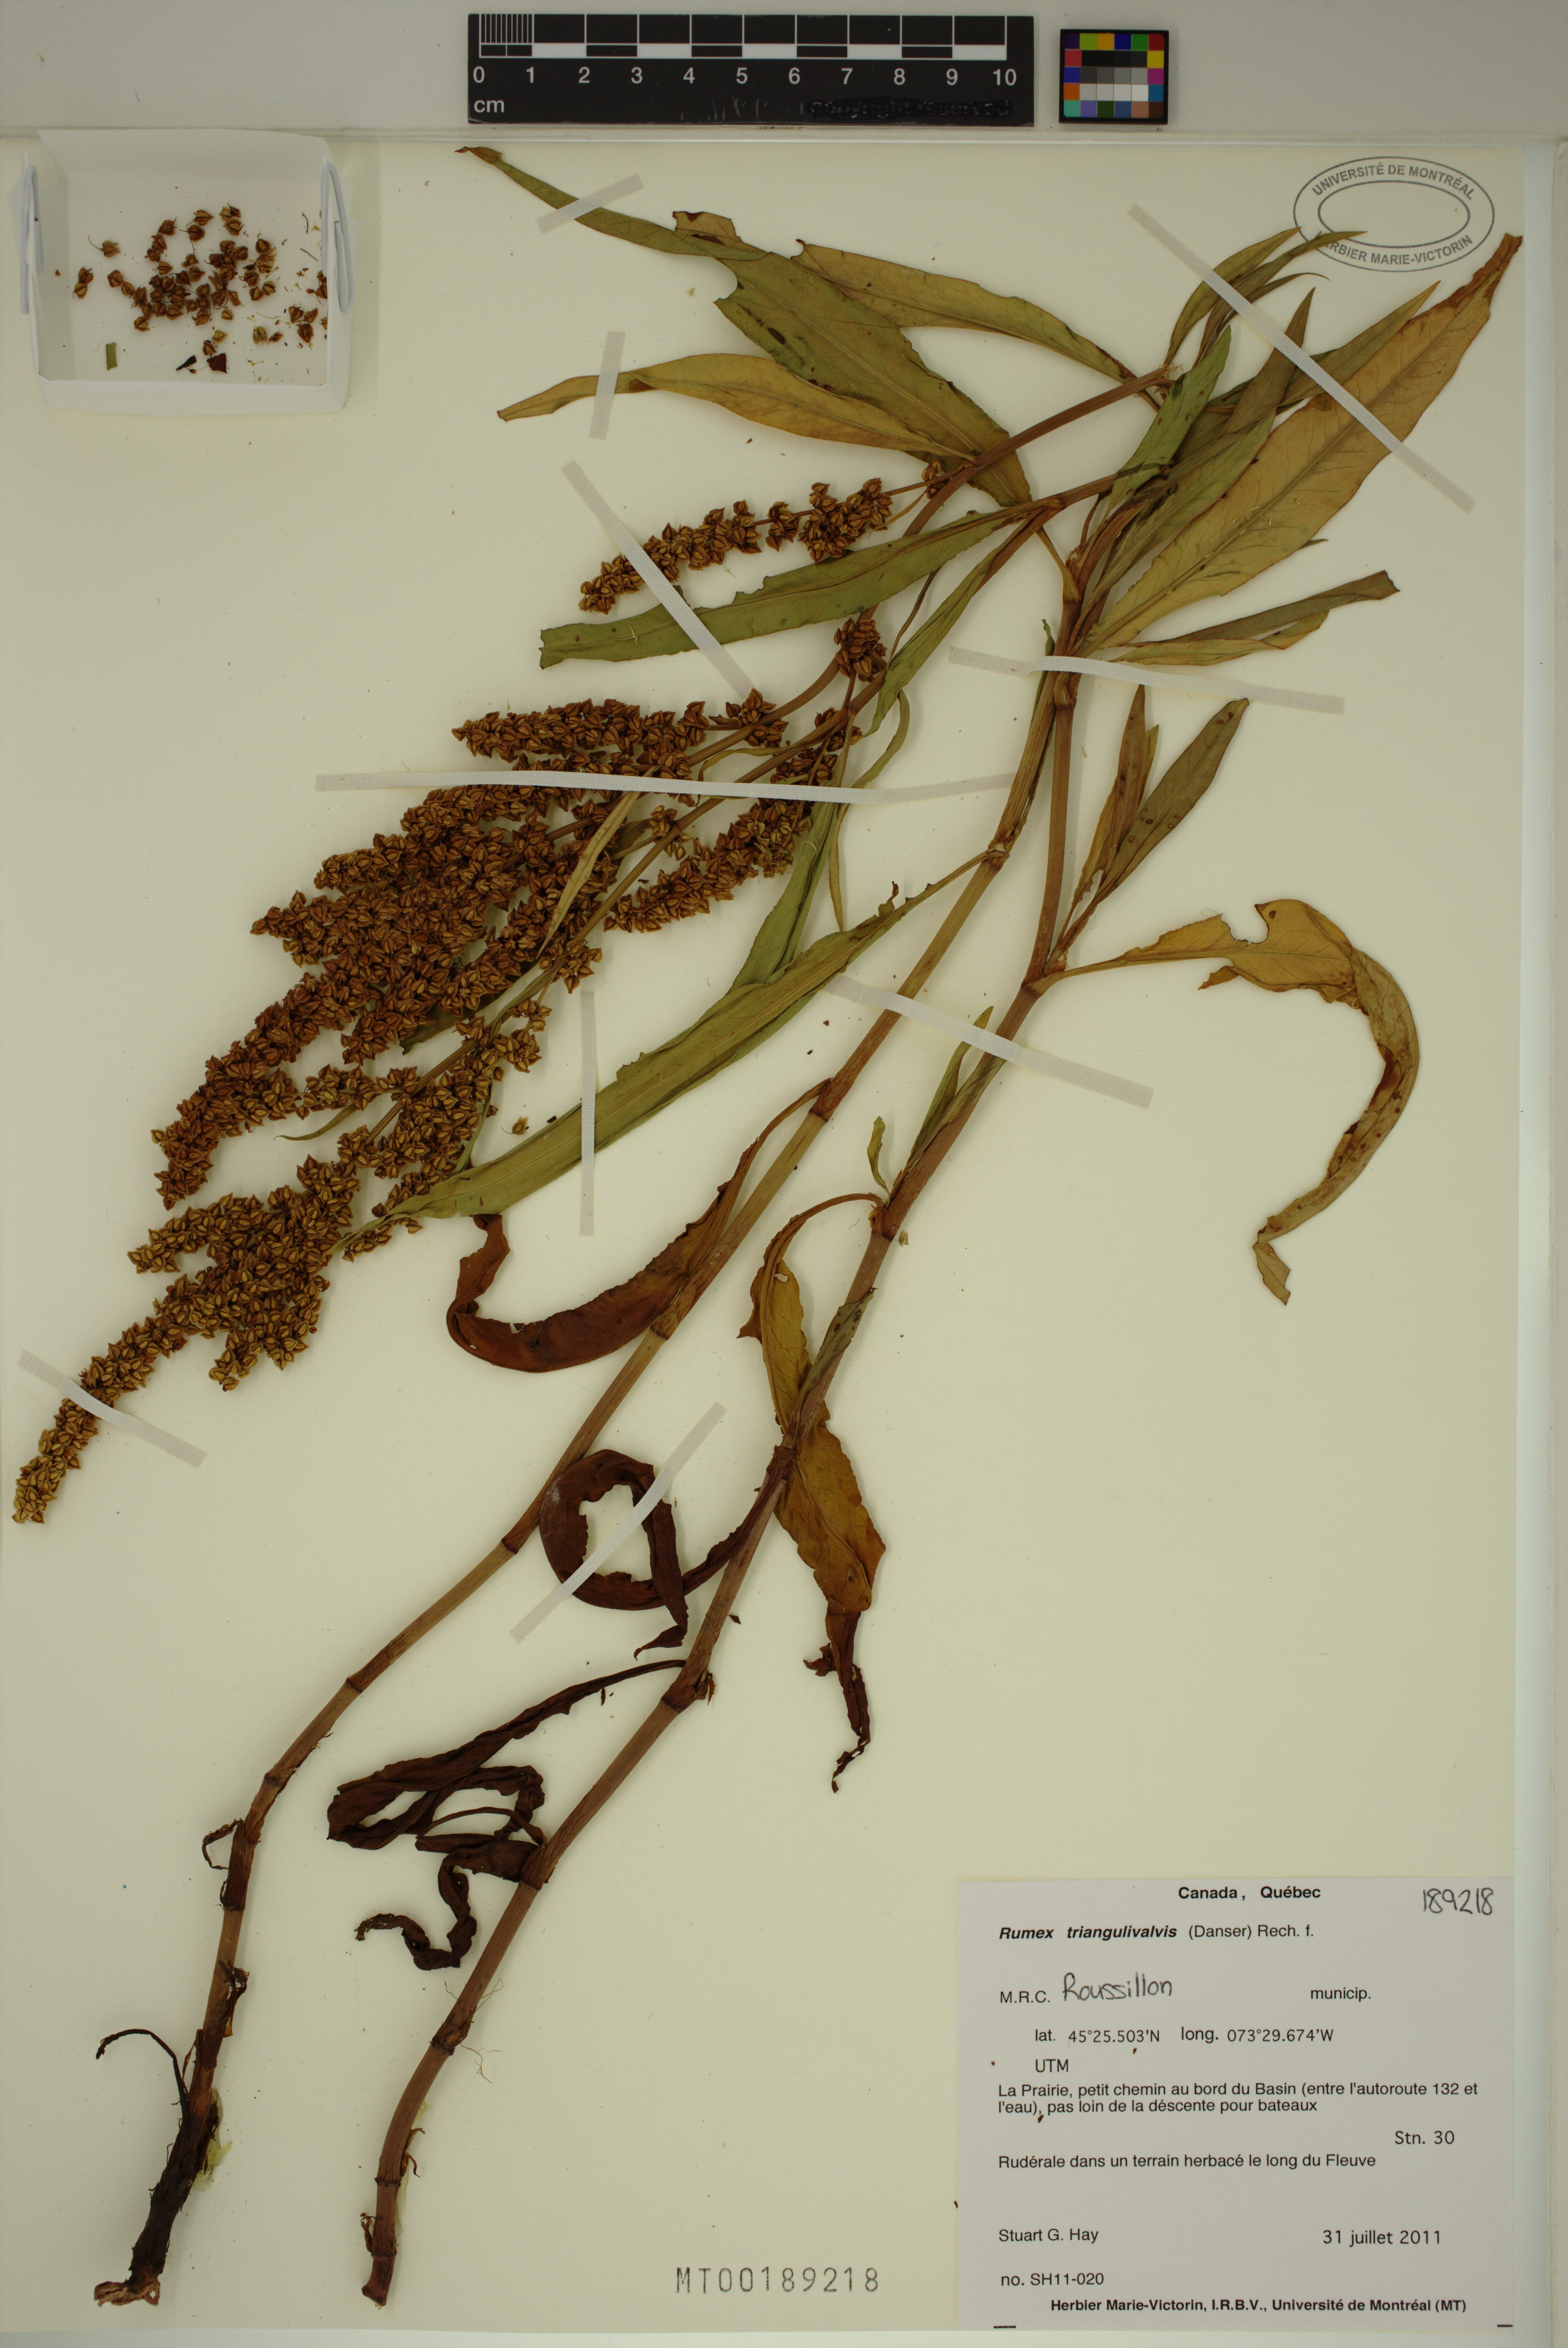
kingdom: Plantae
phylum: Tracheophyta
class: Magnoliopsida
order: Caryophyllales
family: Polygonaceae
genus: Rumex
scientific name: Rumex triangulivalvis
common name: Triangular-valve dock
